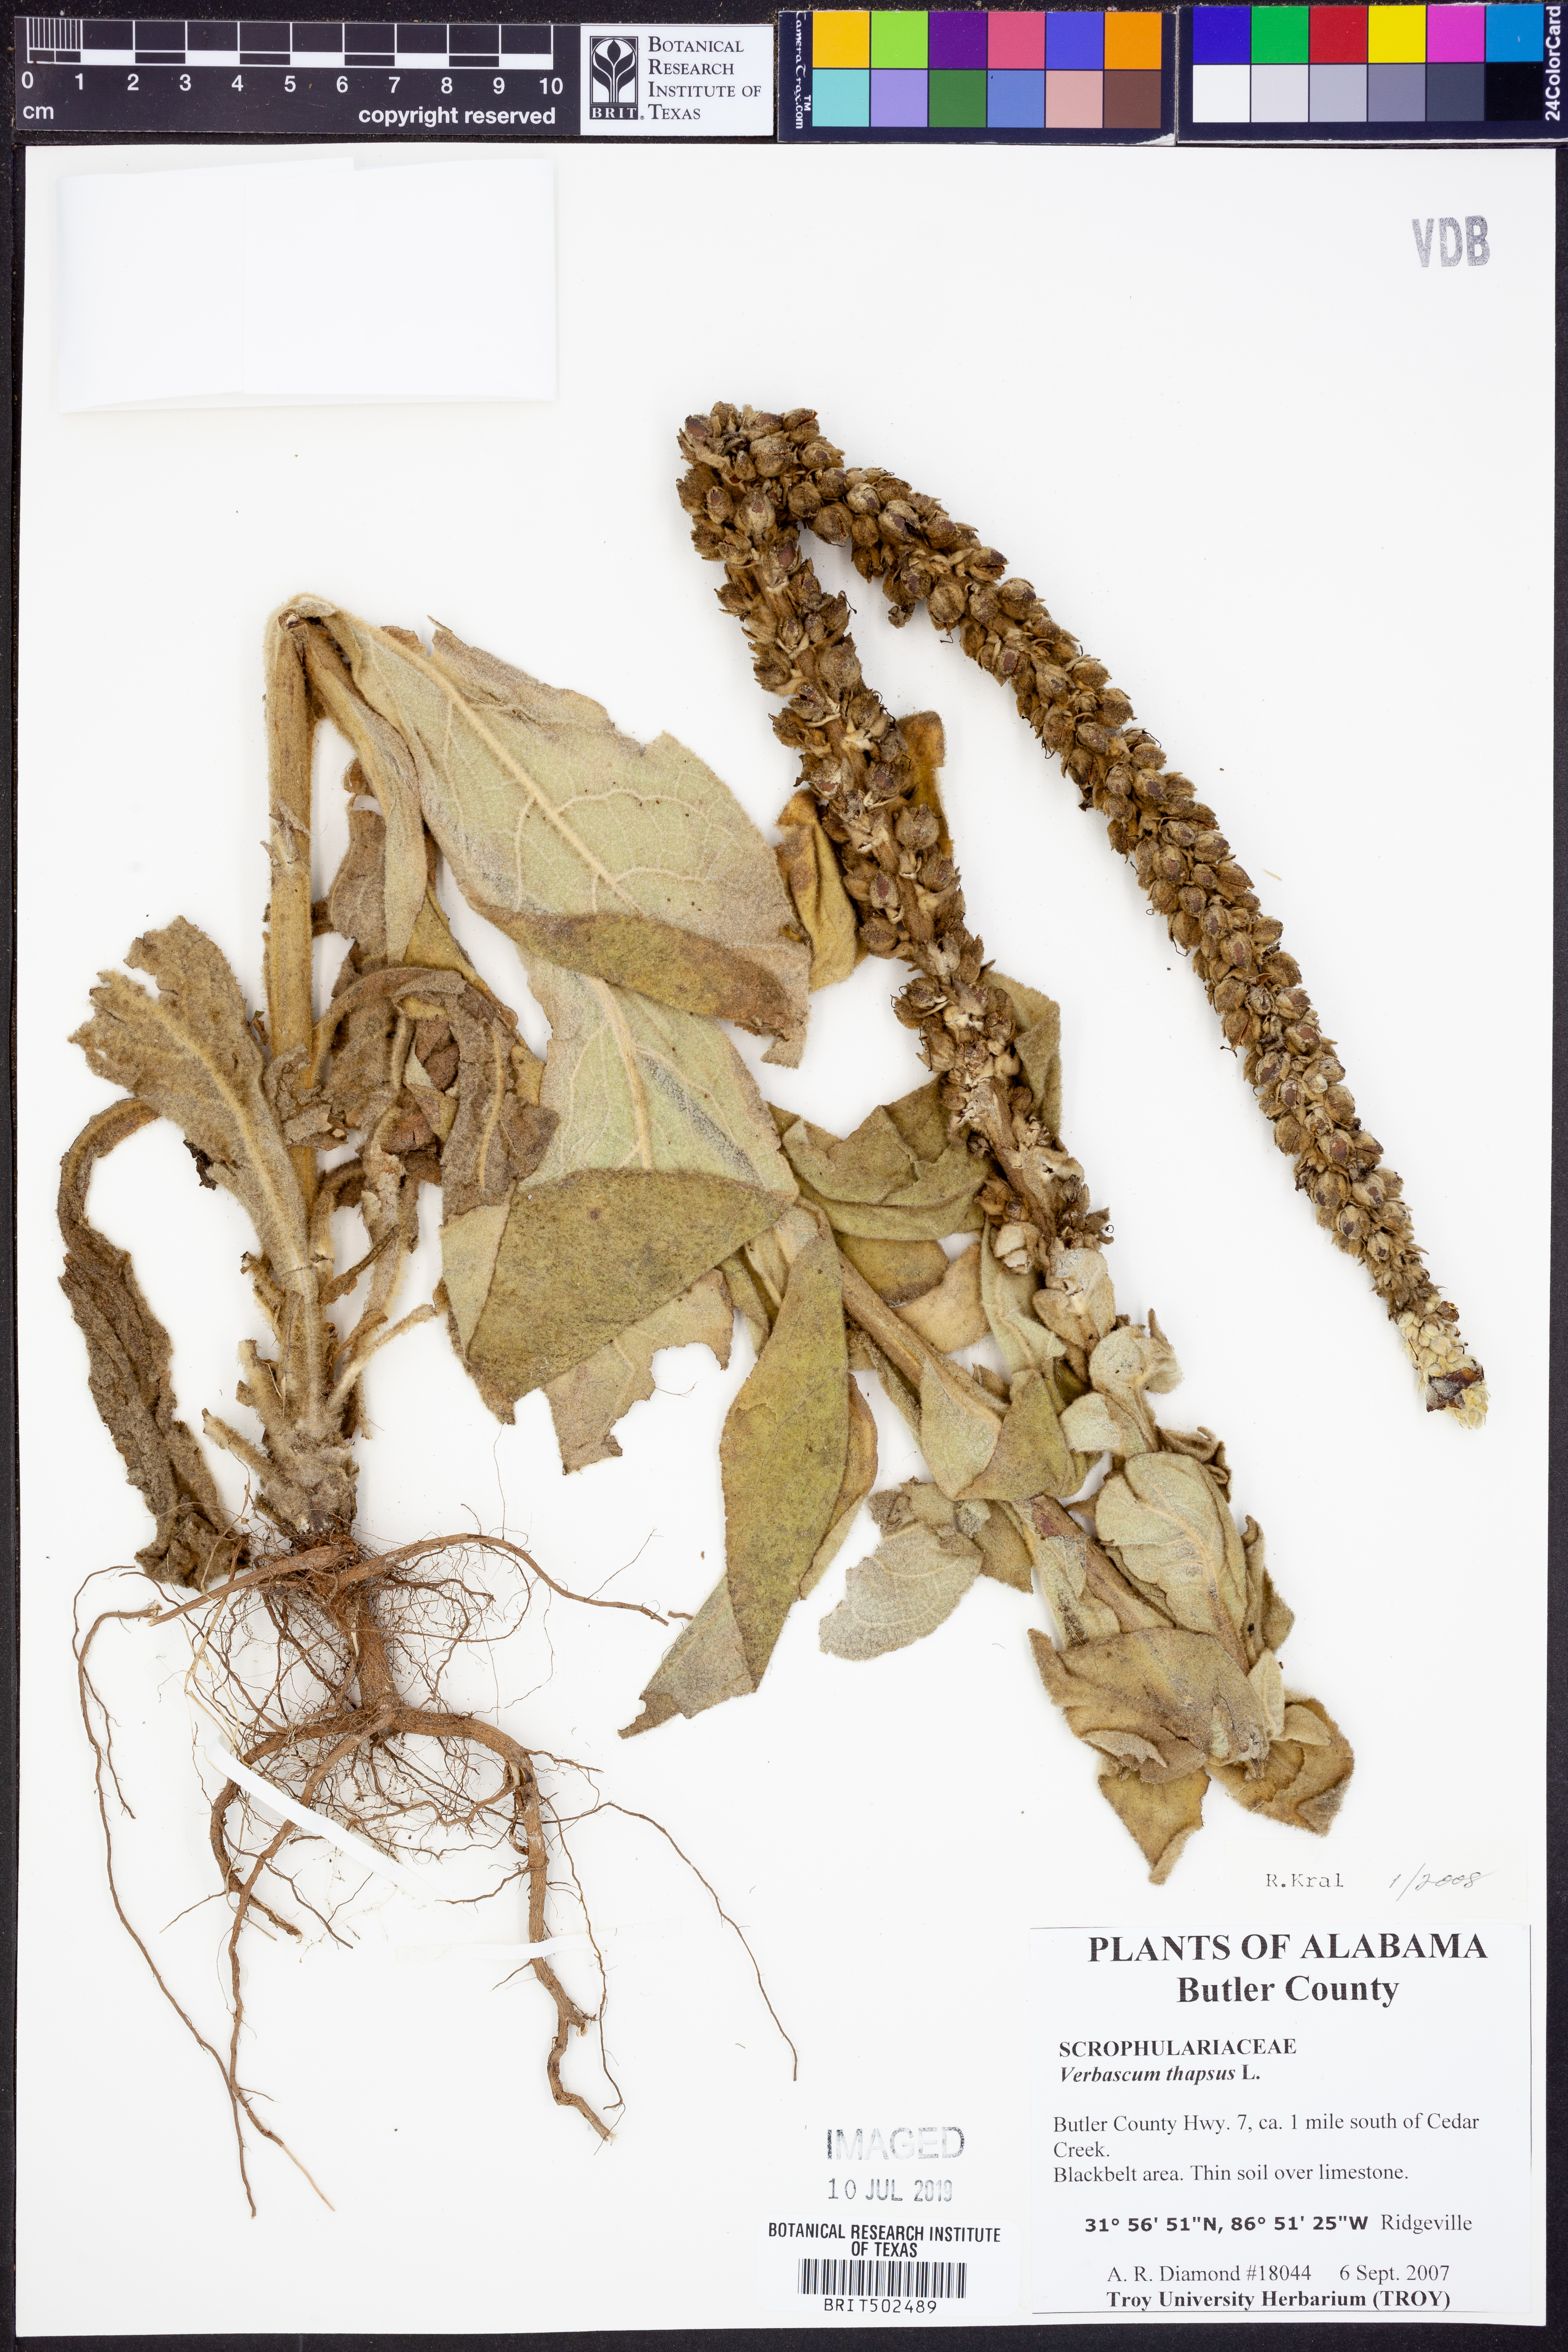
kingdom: Plantae
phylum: Tracheophyta
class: Magnoliopsida
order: Lamiales
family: Scrophulariaceae
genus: Verbascum
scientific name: Verbascum thapsus
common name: Common mullein
